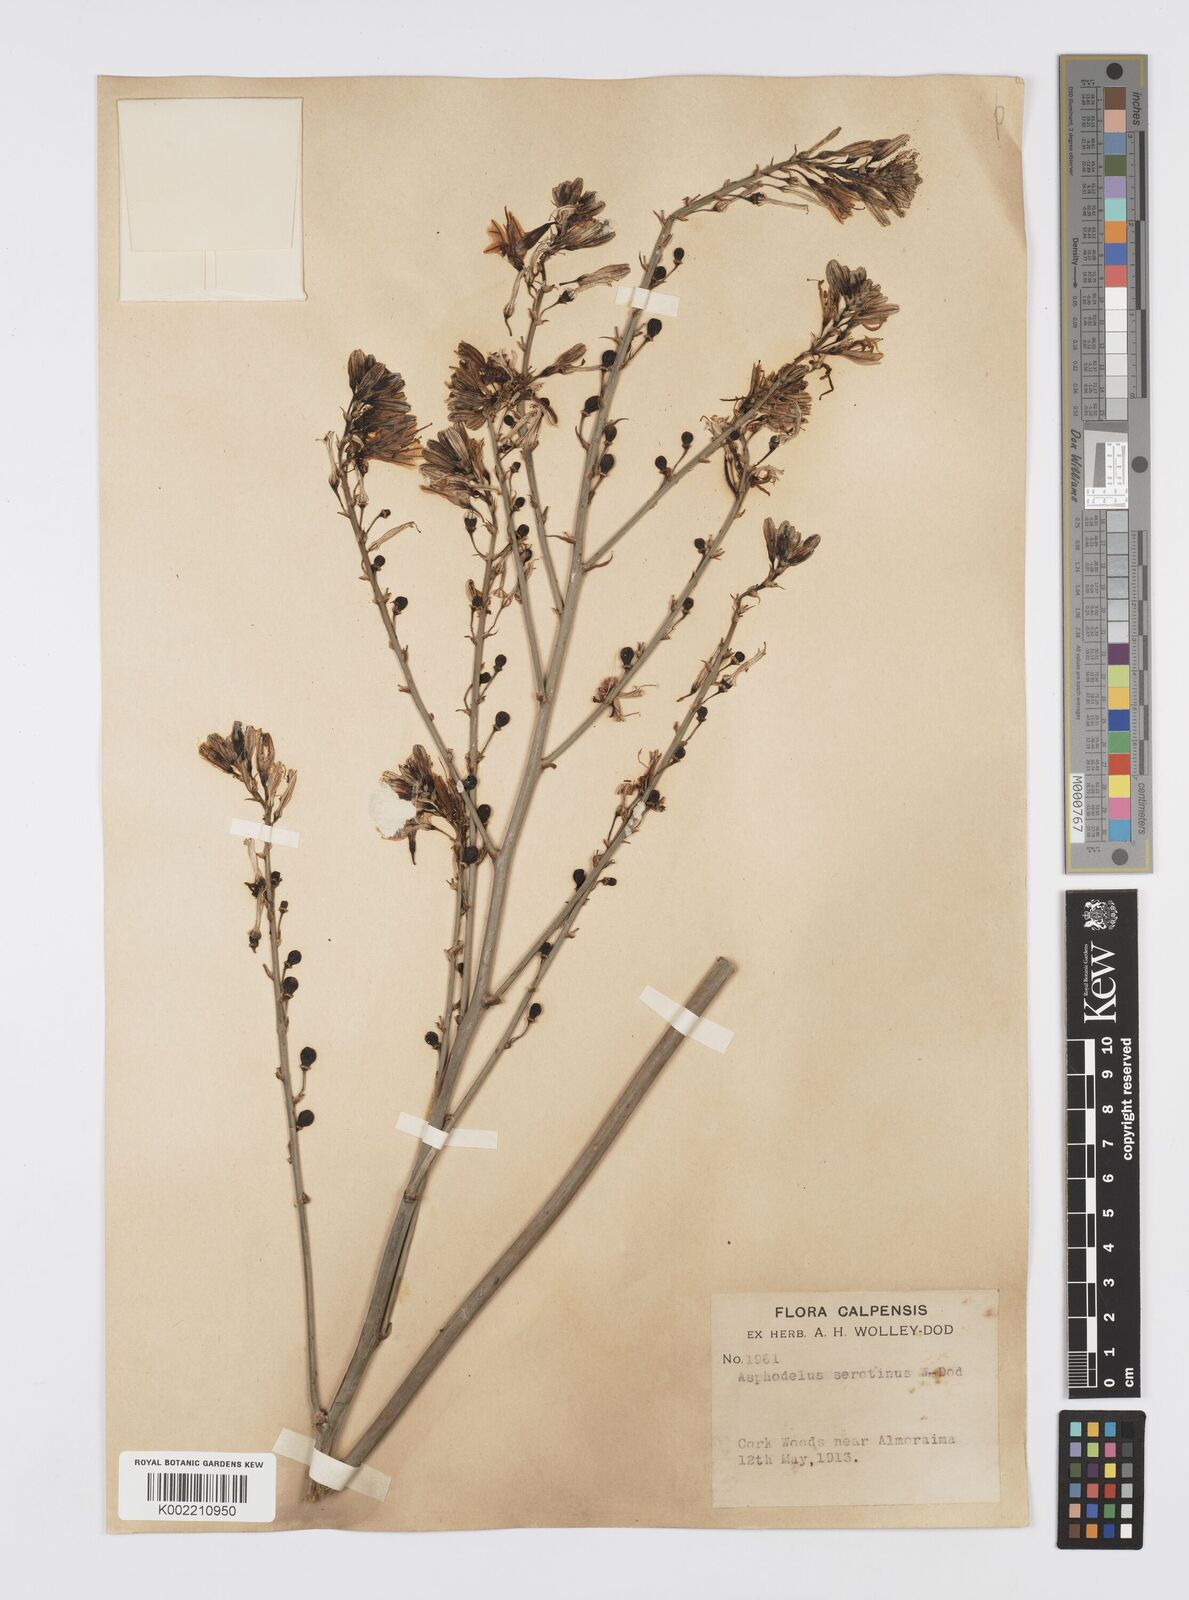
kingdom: Plantae
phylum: Tracheophyta
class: Liliopsida
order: Asparagales
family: Asphodelaceae
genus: Asphodelus
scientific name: Asphodelus ramosus
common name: Silverrod
